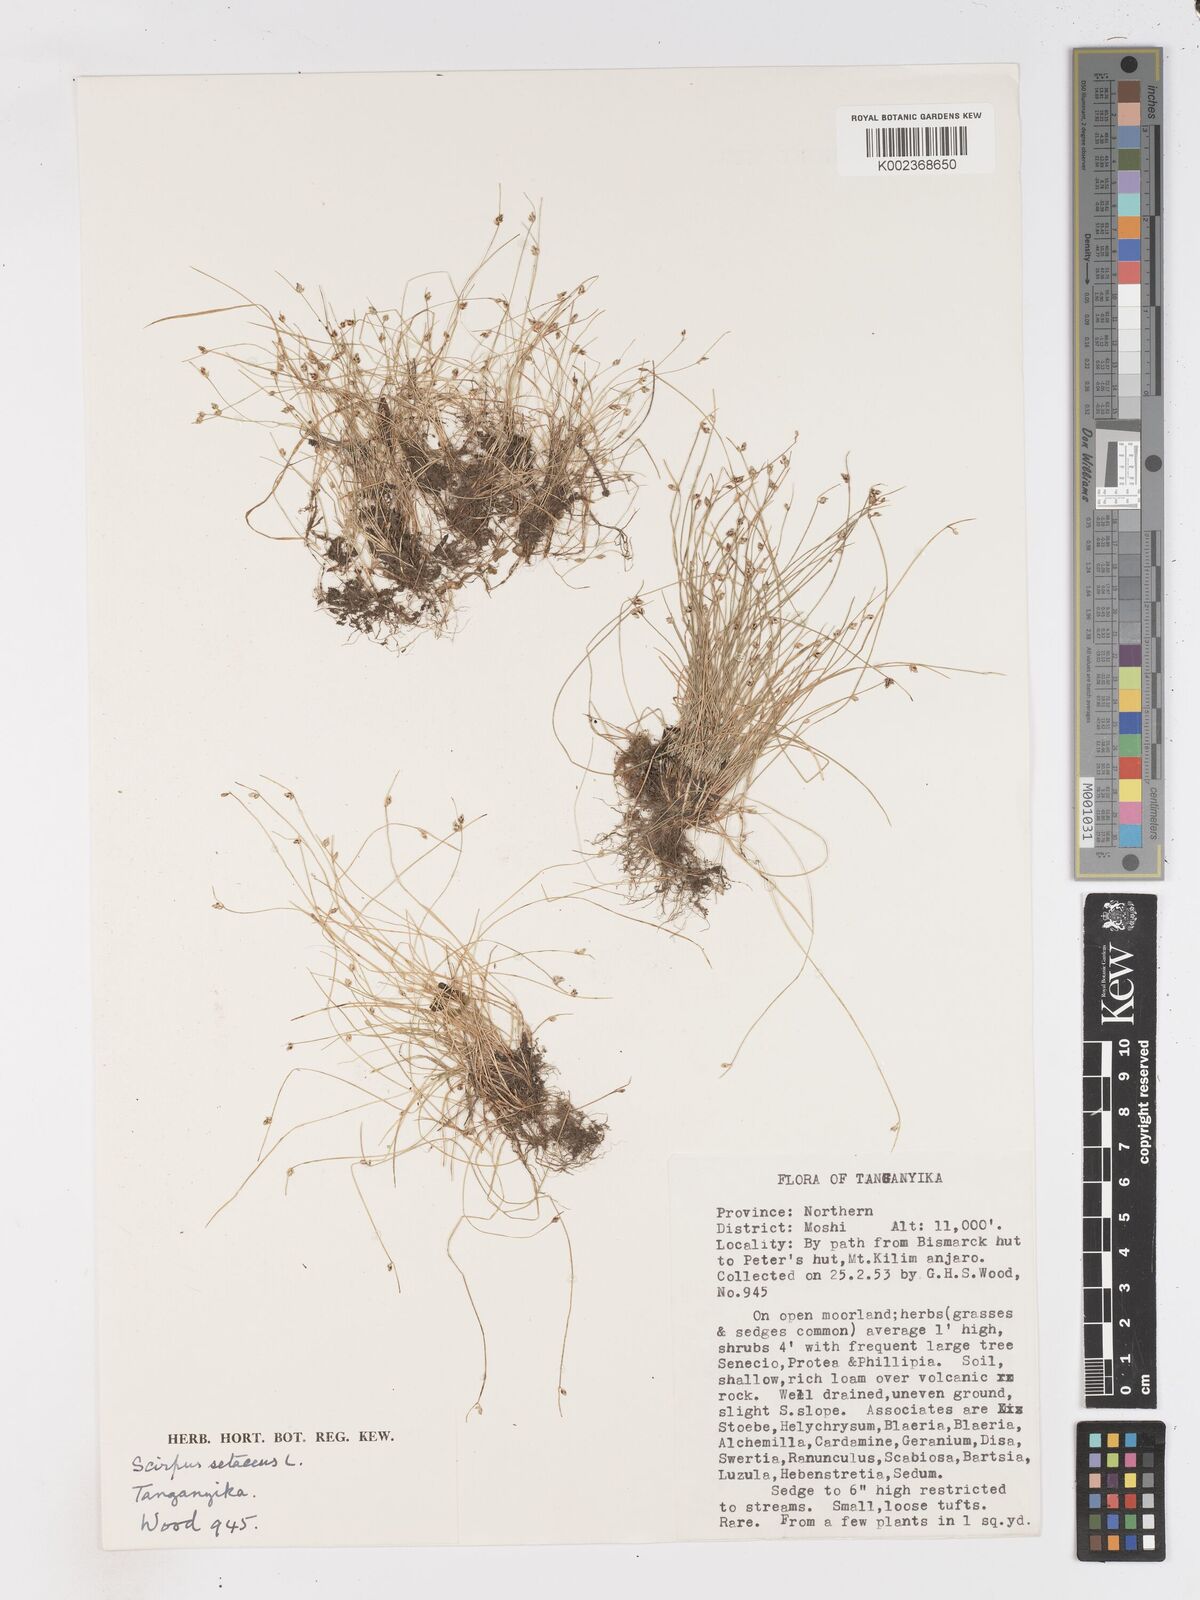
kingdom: Plantae
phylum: Tracheophyta
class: Liliopsida
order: Poales
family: Cyperaceae
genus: Isolepis
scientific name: Isolepis setacea
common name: Bristle club-rush
